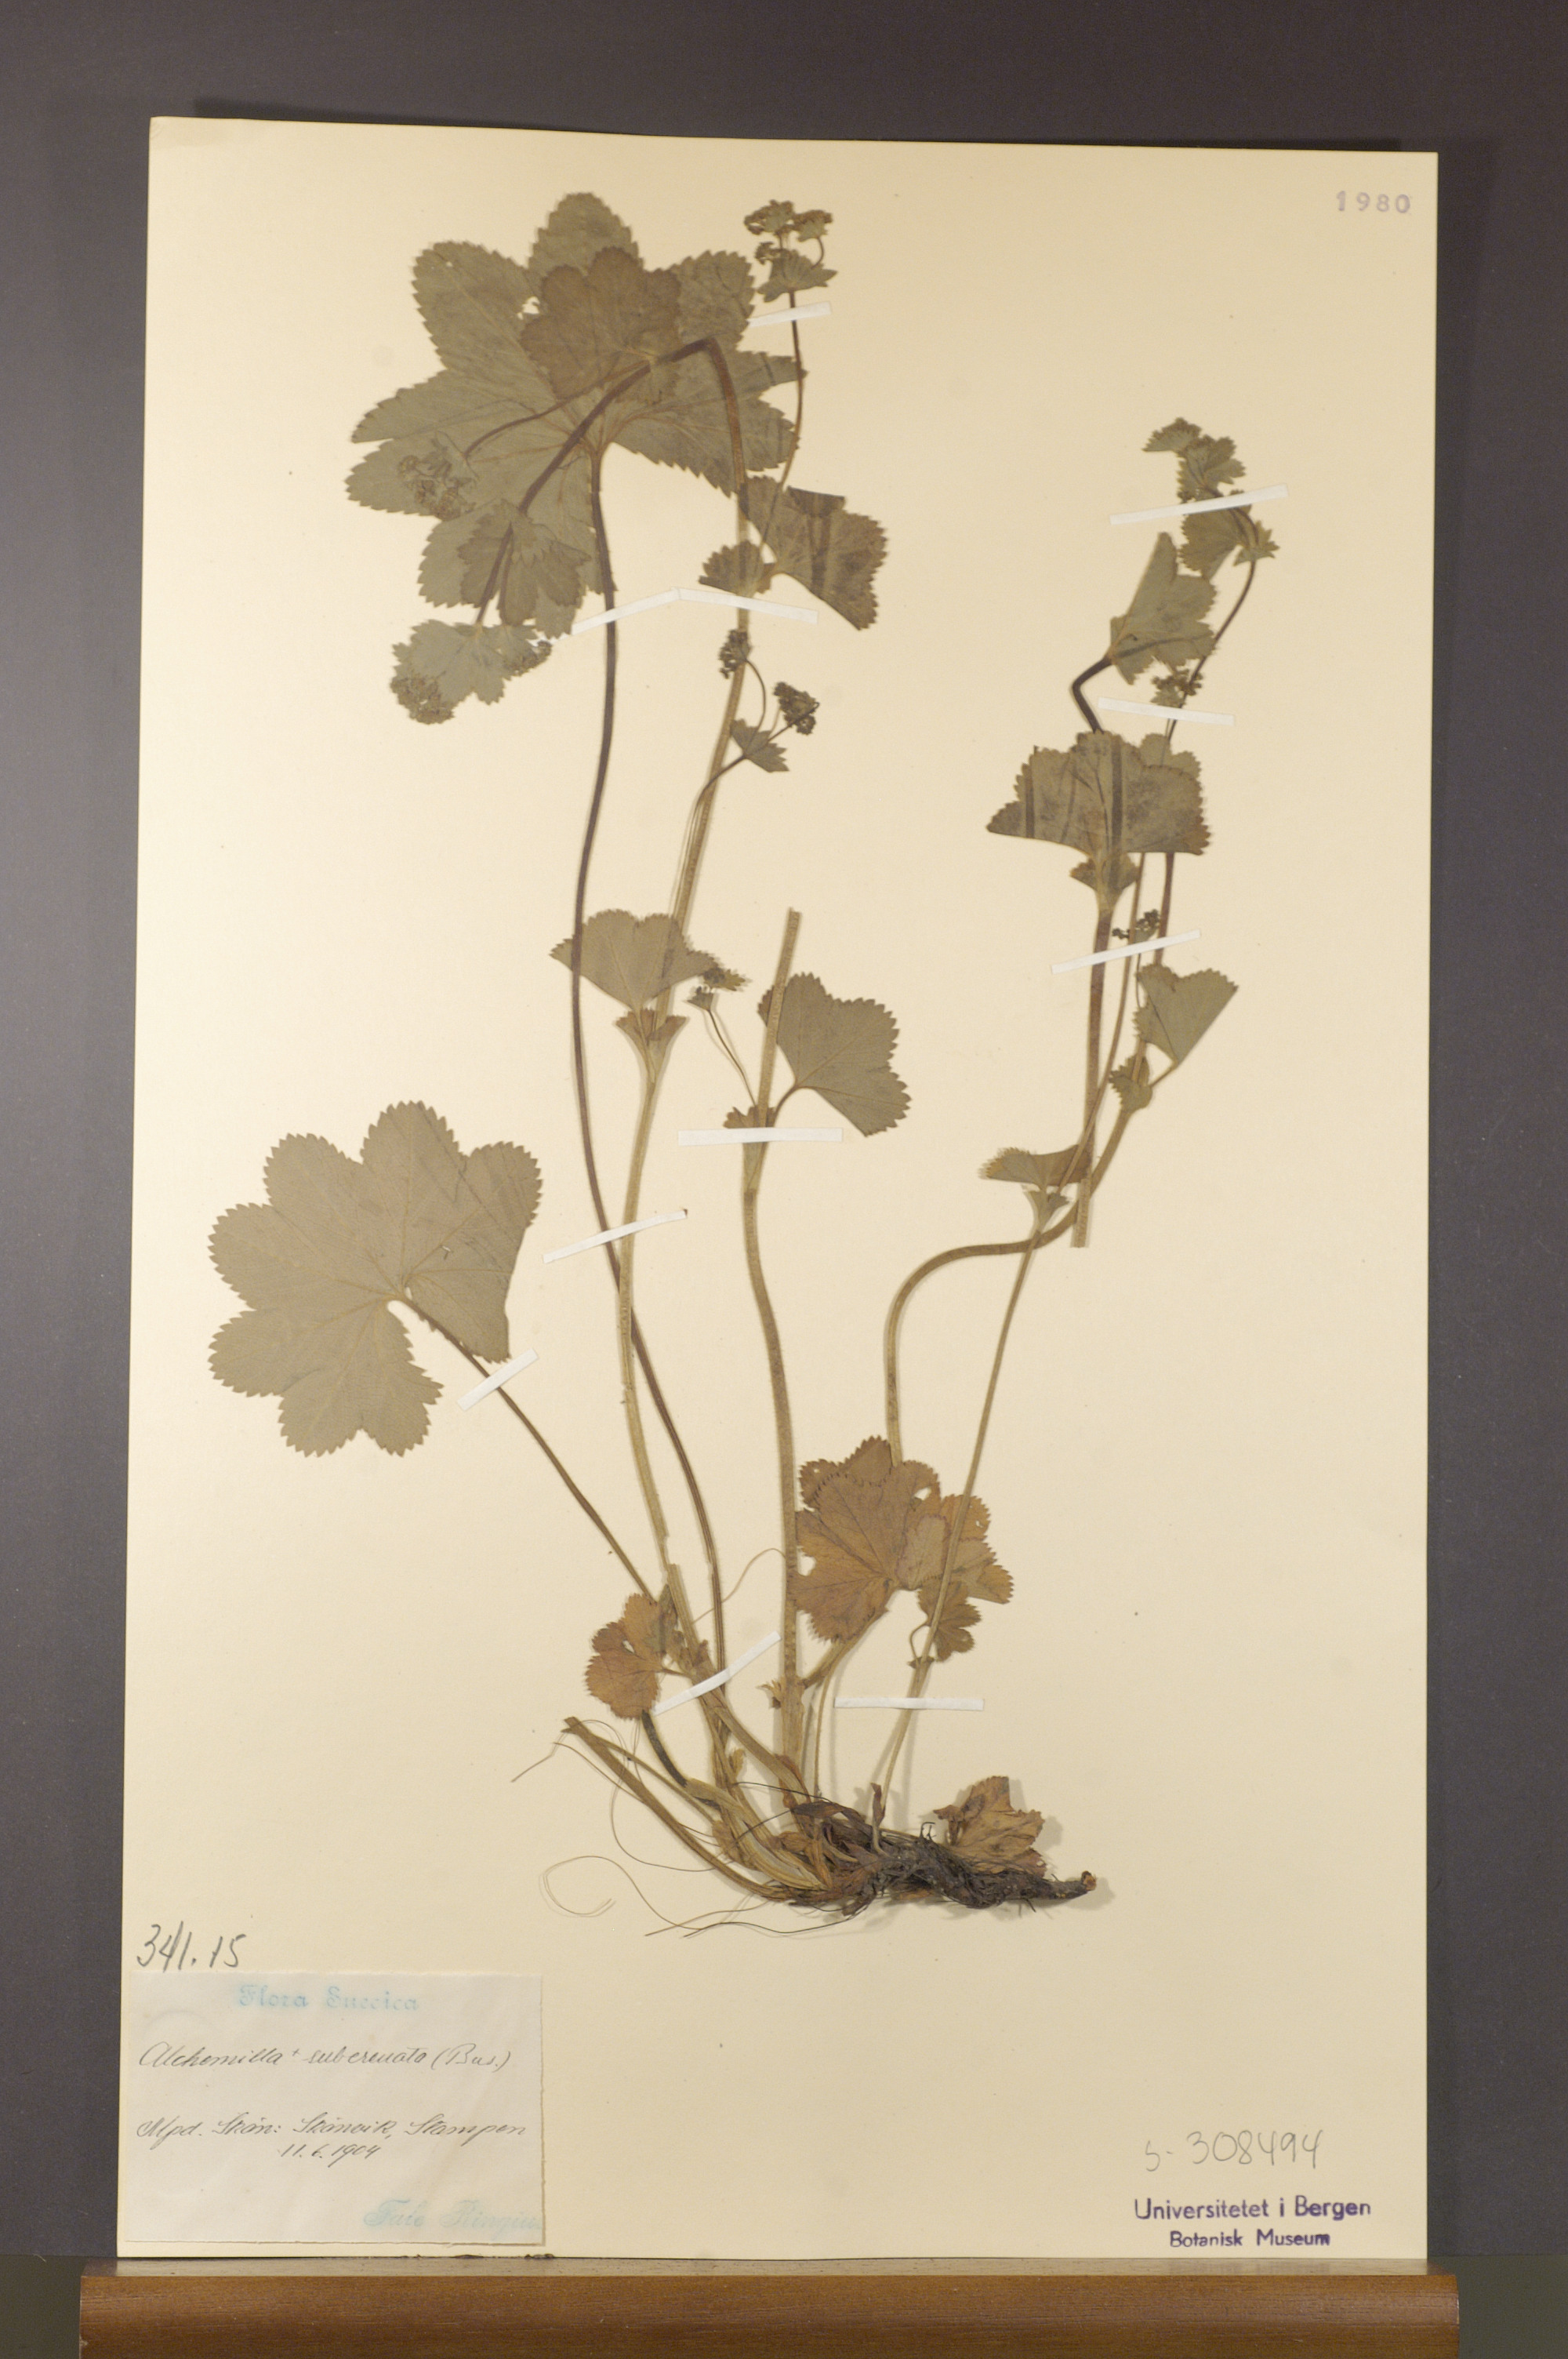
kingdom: Plantae
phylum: Tracheophyta
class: Magnoliopsida
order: Rosales
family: Rosaceae
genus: Alchemilla
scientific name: Alchemilla subcrenata
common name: Broadtooth lady's mantle
